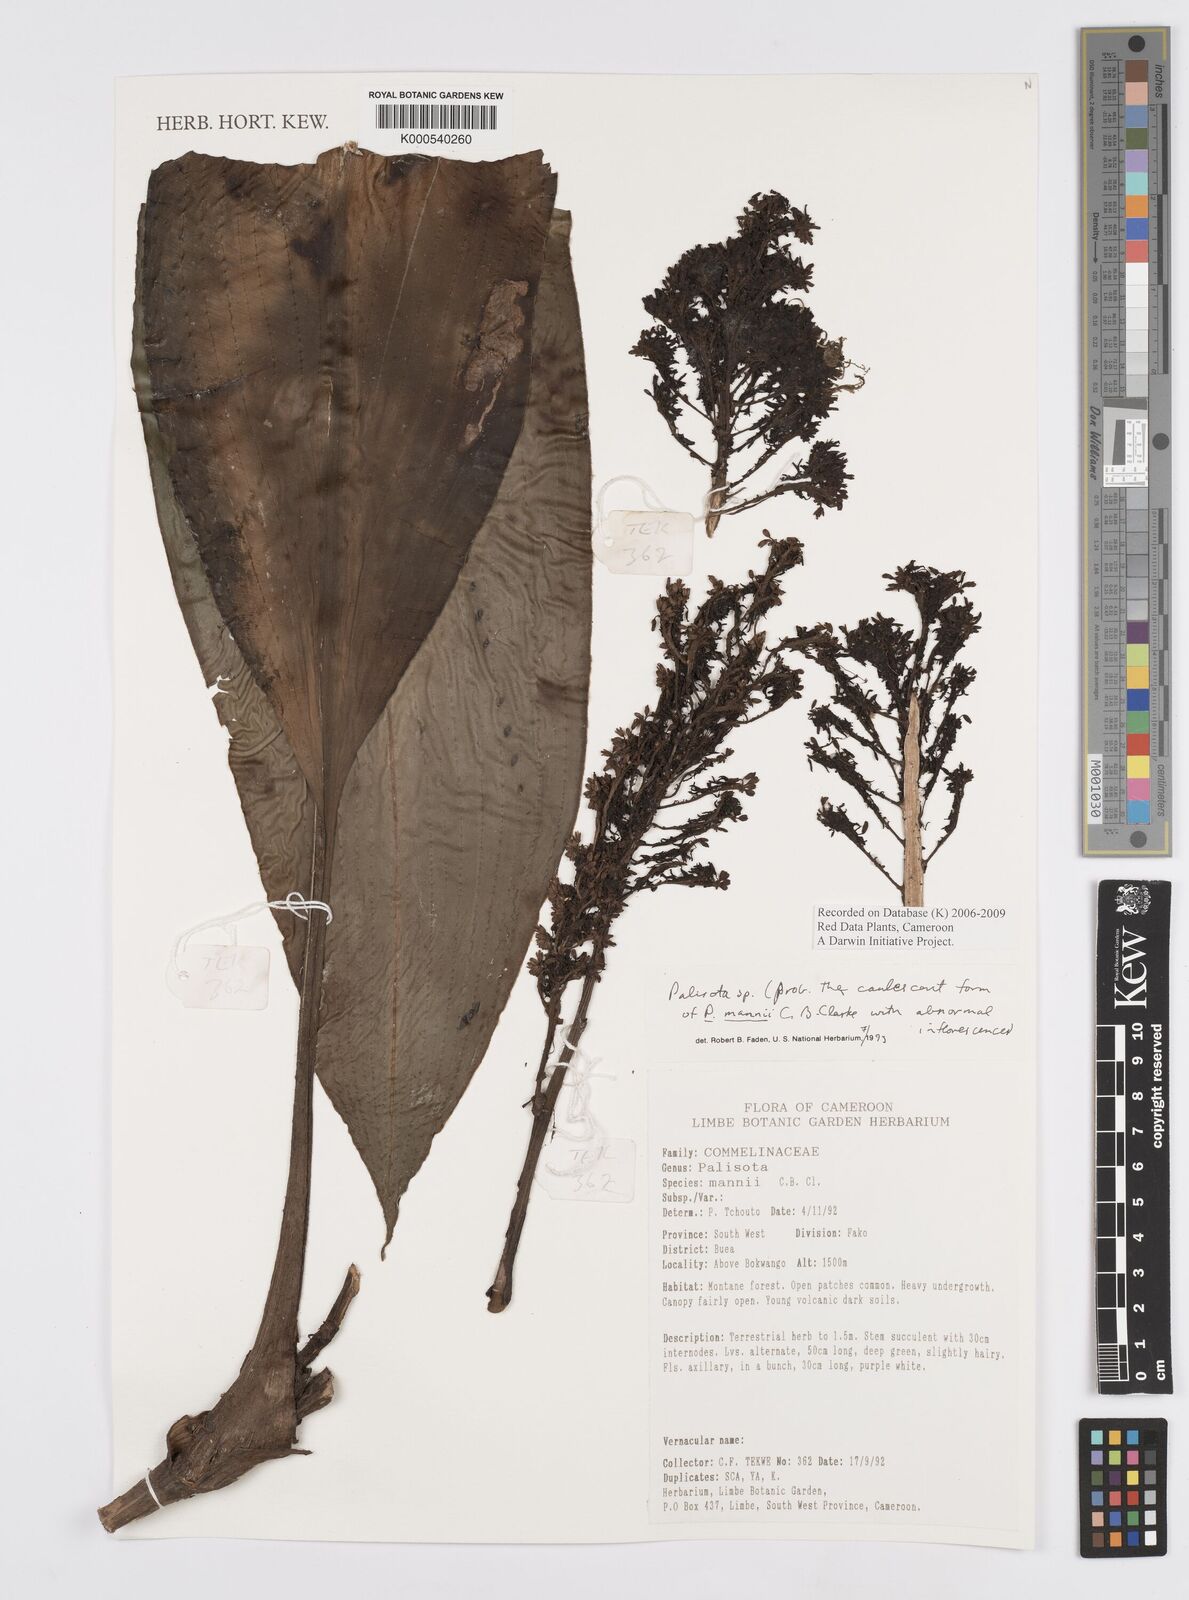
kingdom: Plantae
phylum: Tracheophyta
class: Liliopsida
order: Commelinales
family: Commelinaceae
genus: Palisota
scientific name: Palisota mannii
